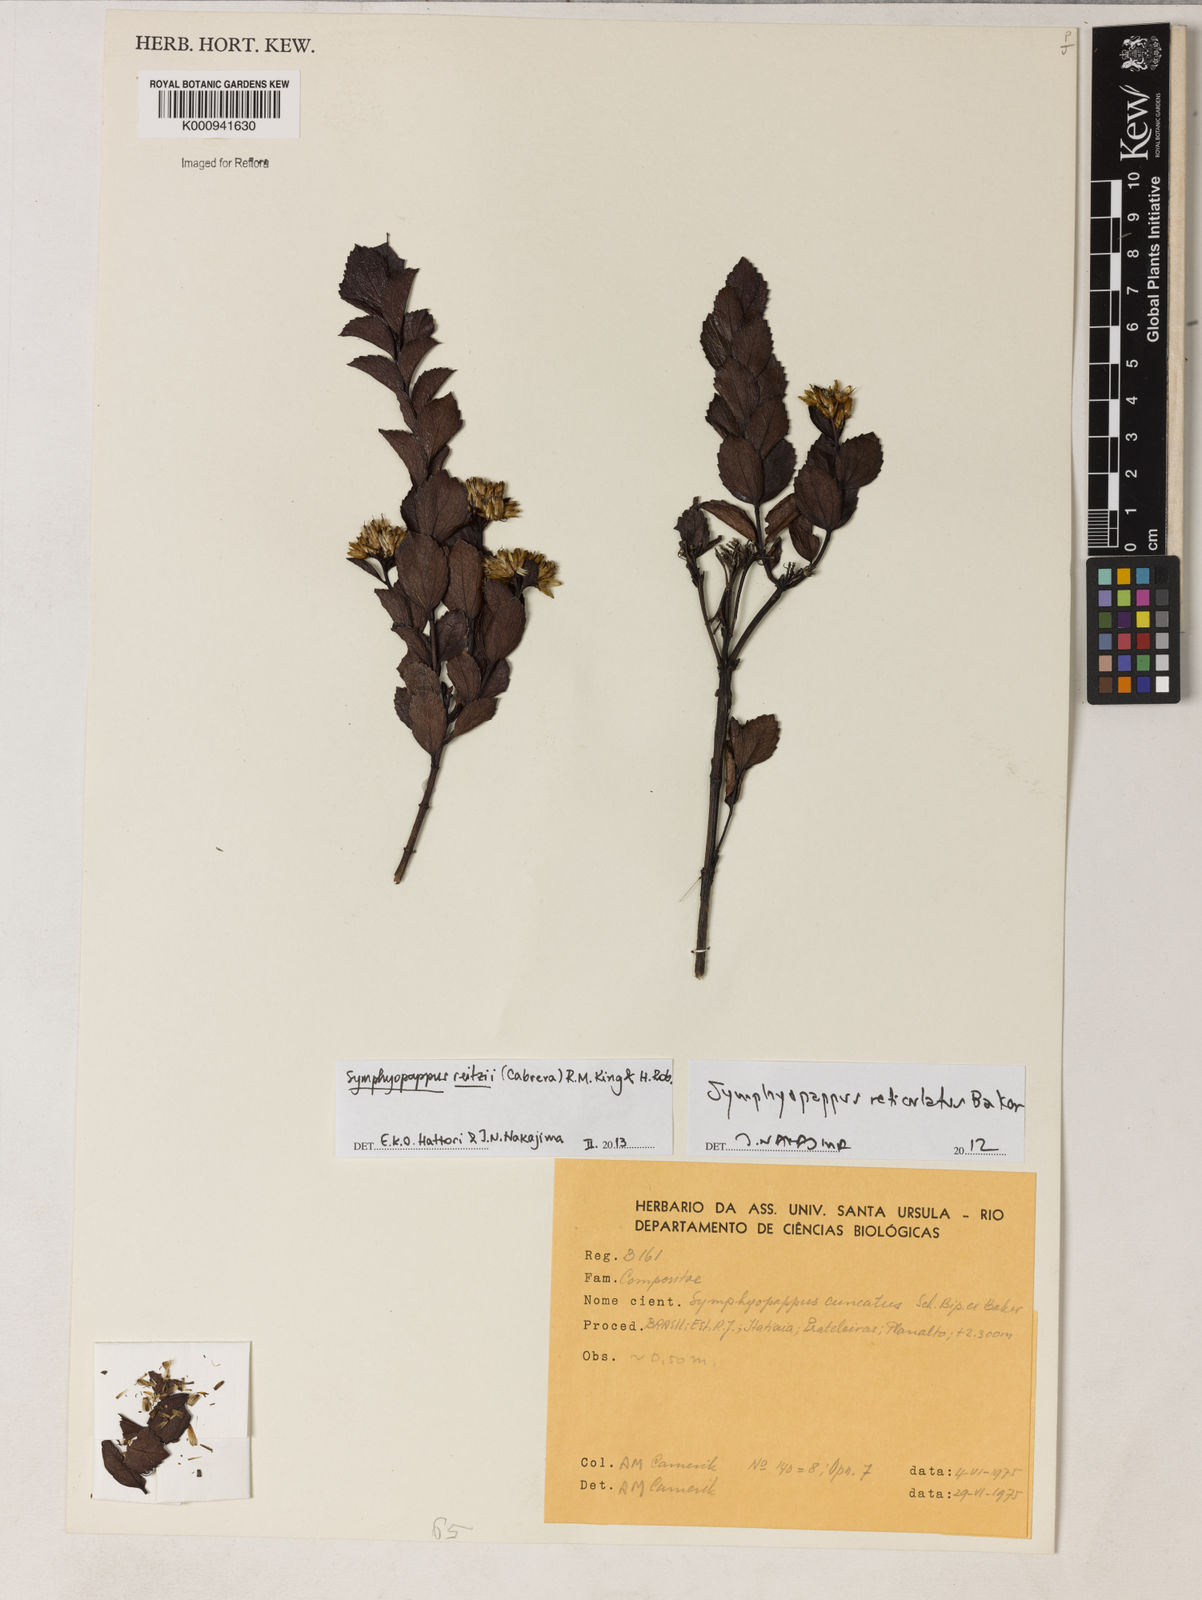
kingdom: Plantae
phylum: Tracheophyta
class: Magnoliopsida
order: Asterales
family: Asteraceae
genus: Symphyopappus
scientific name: Symphyopappus reitzii
